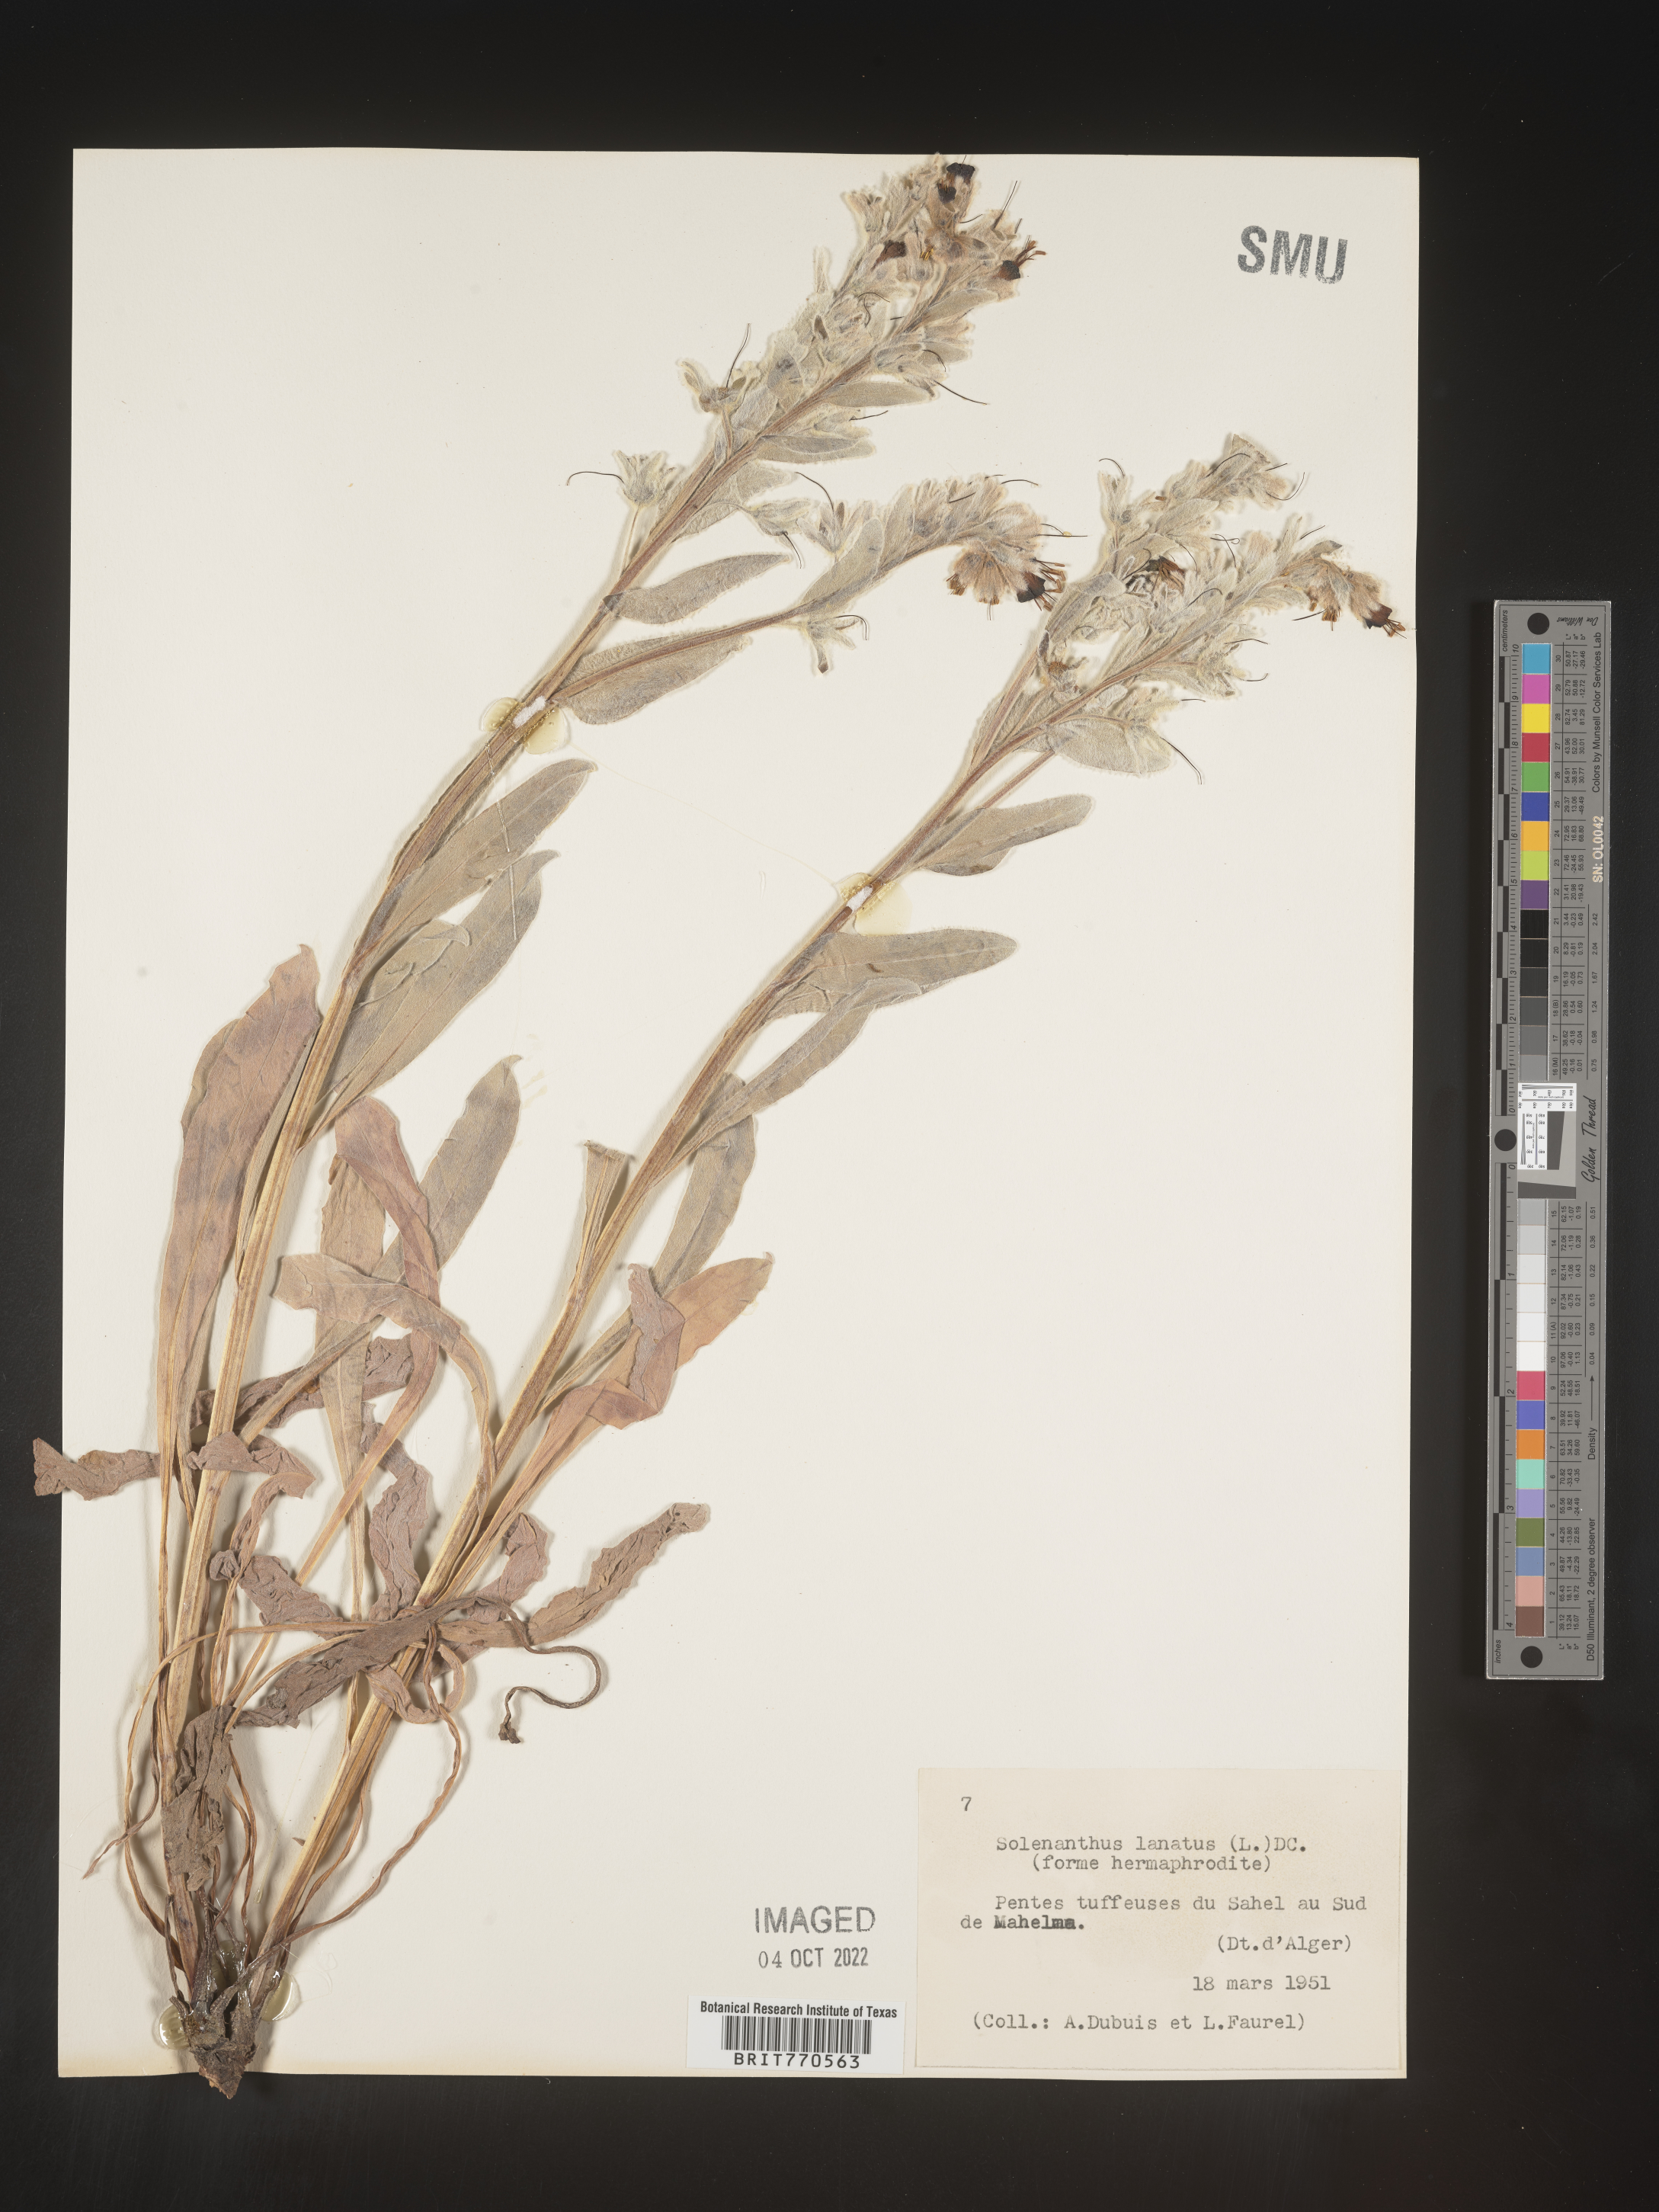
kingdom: Plantae
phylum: Tracheophyta
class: Magnoliopsida
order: Boraginales
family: Boraginaceae
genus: Solenanthus
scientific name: Solenanthus
